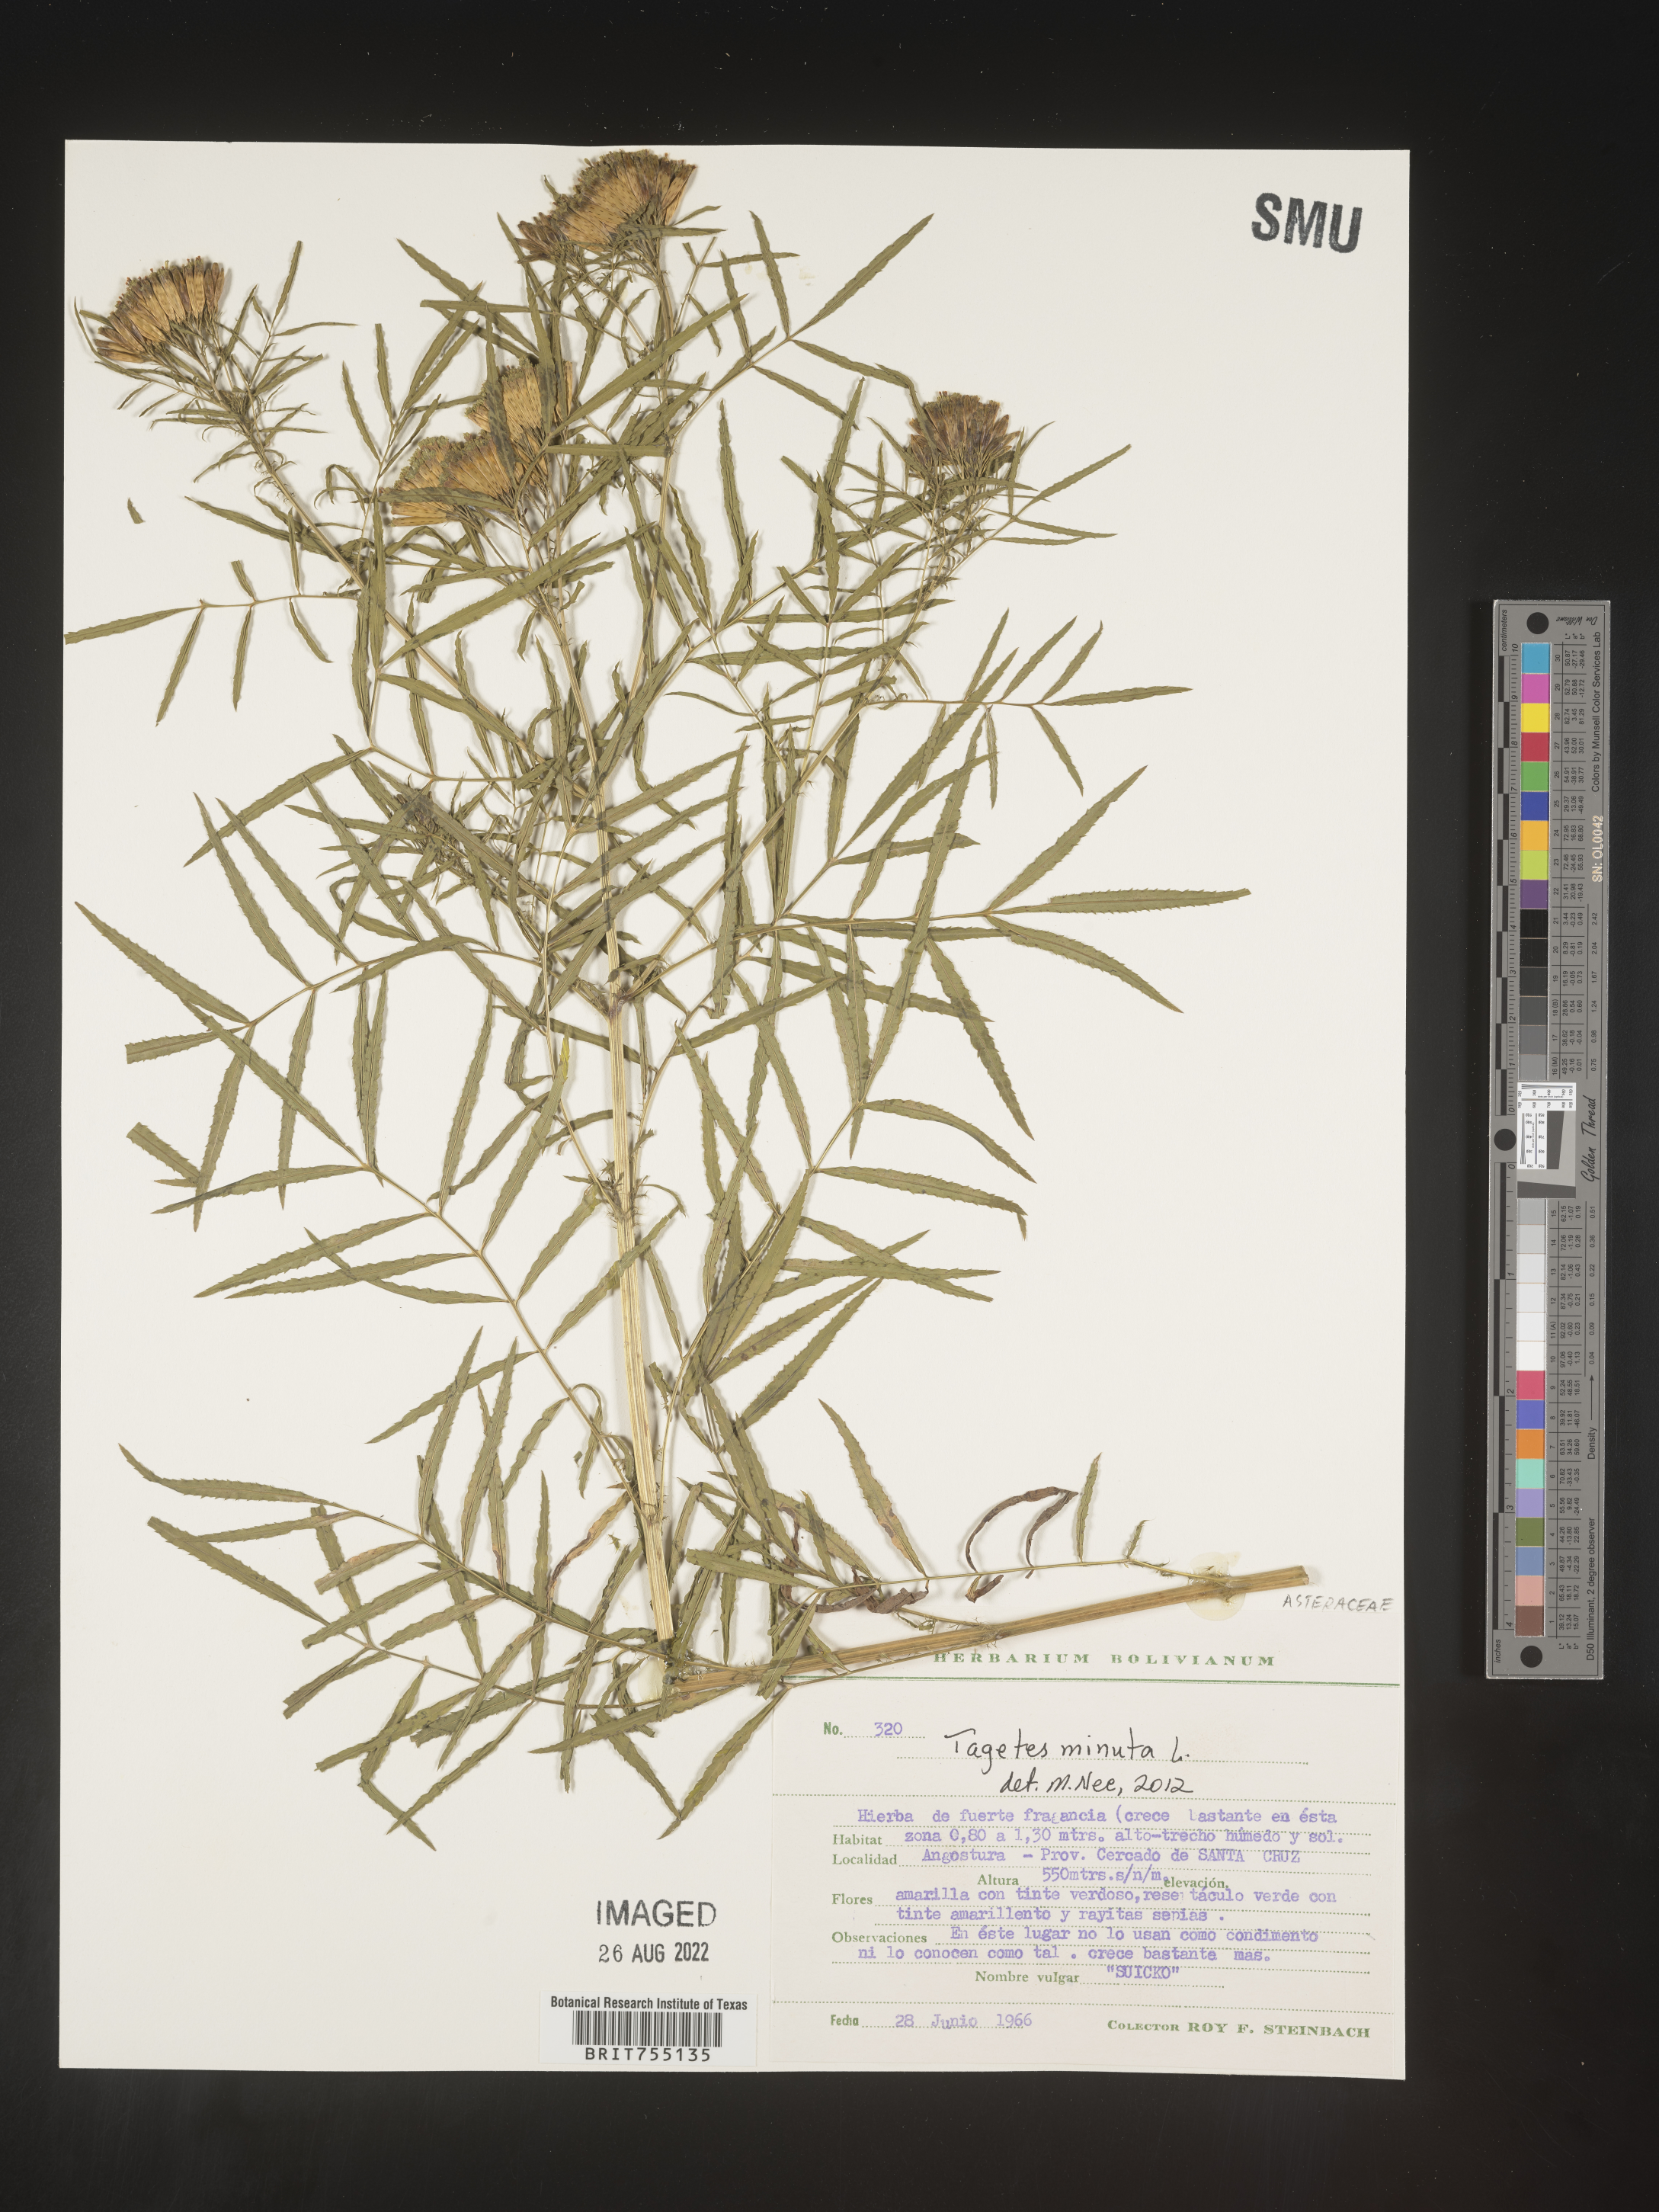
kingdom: Plantae
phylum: Tracheophyta
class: Magnoliopsida
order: Asterales
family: Asteraceae
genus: Tagetes
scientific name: Tagetes
